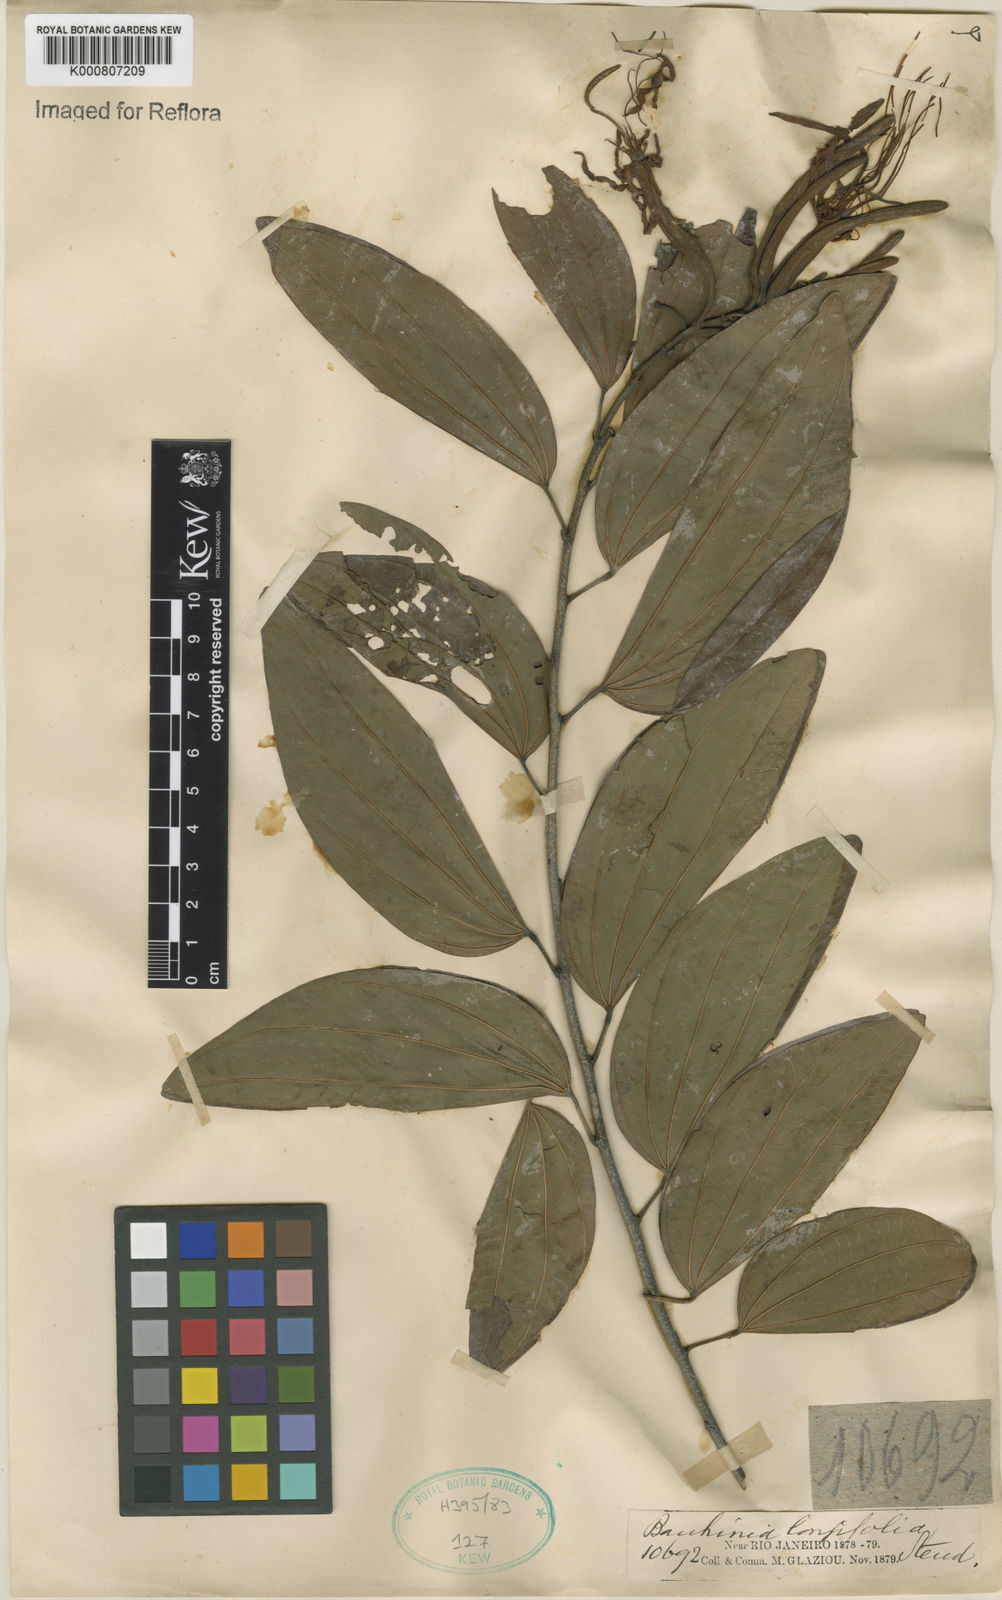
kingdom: Plantae
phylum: Tracheophyta
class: Magnoliopsida
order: Fabales
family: Fabaceae
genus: Bauhinia
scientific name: Bauhinia longifolia
